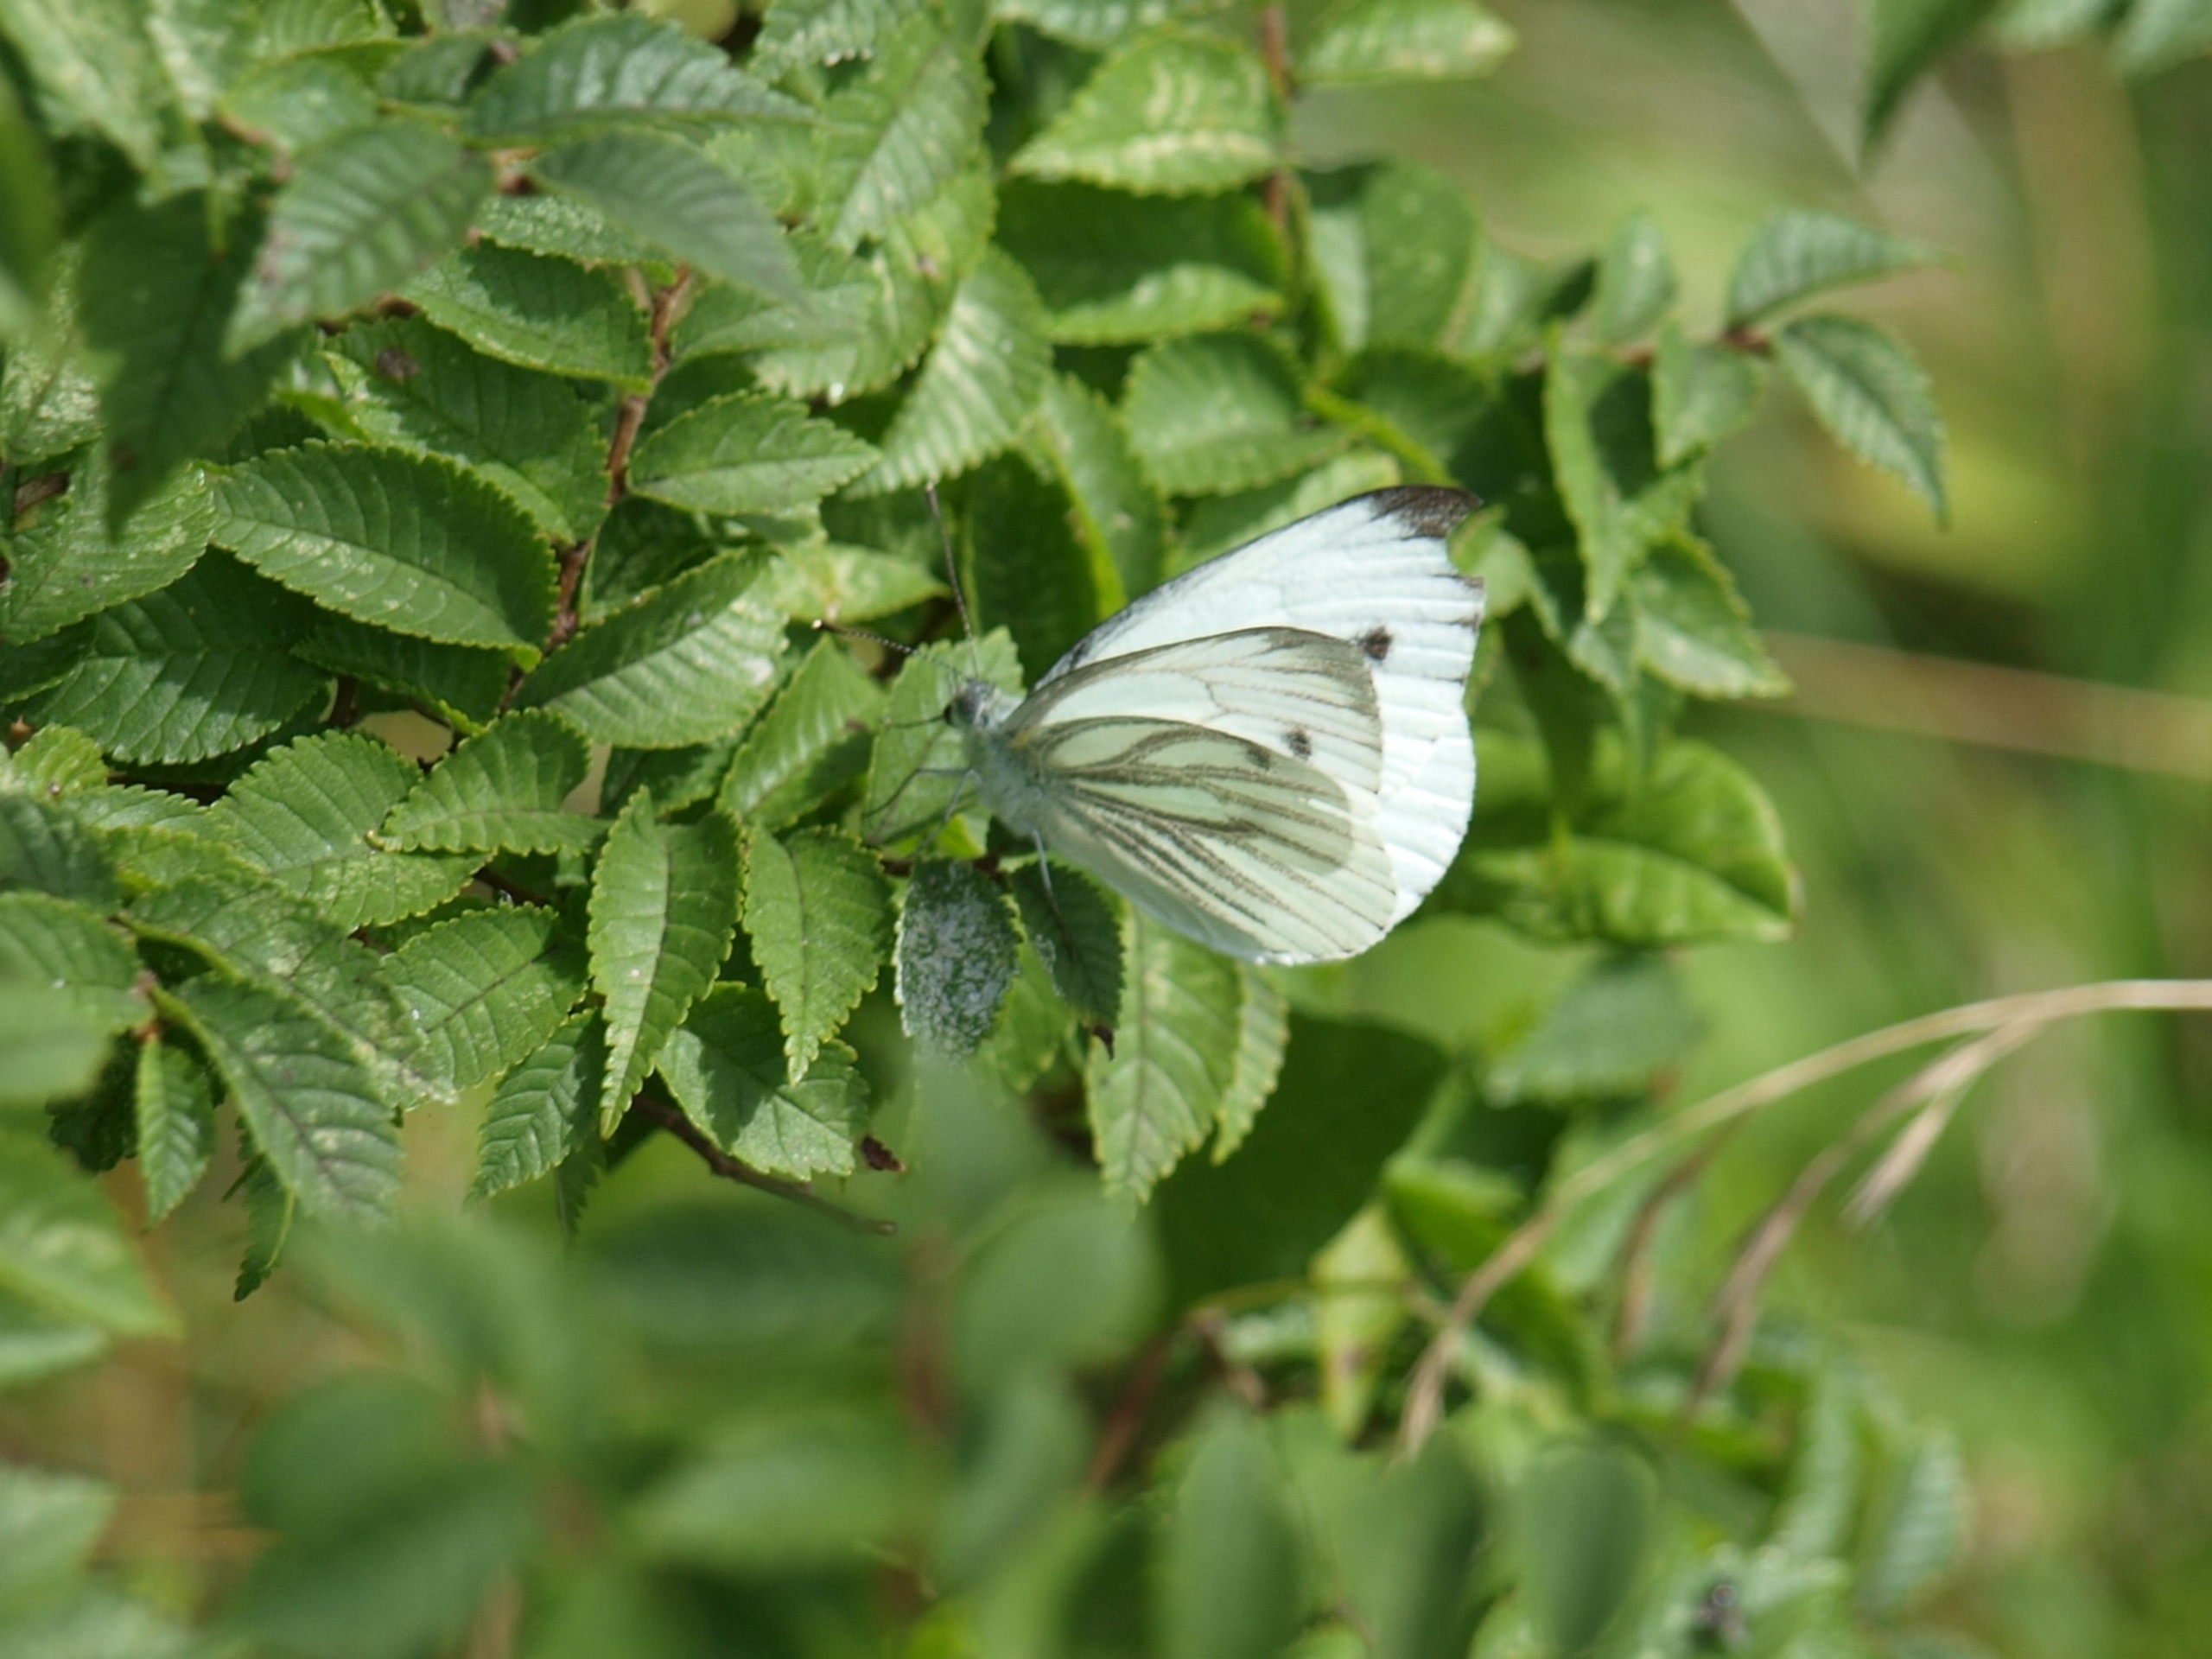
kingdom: Animalia
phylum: Arthropoda
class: Insecta
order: Lepidoptera
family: Pieridae
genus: Pieris
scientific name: Pieris napi
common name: Grønåret kålsommerfugl
